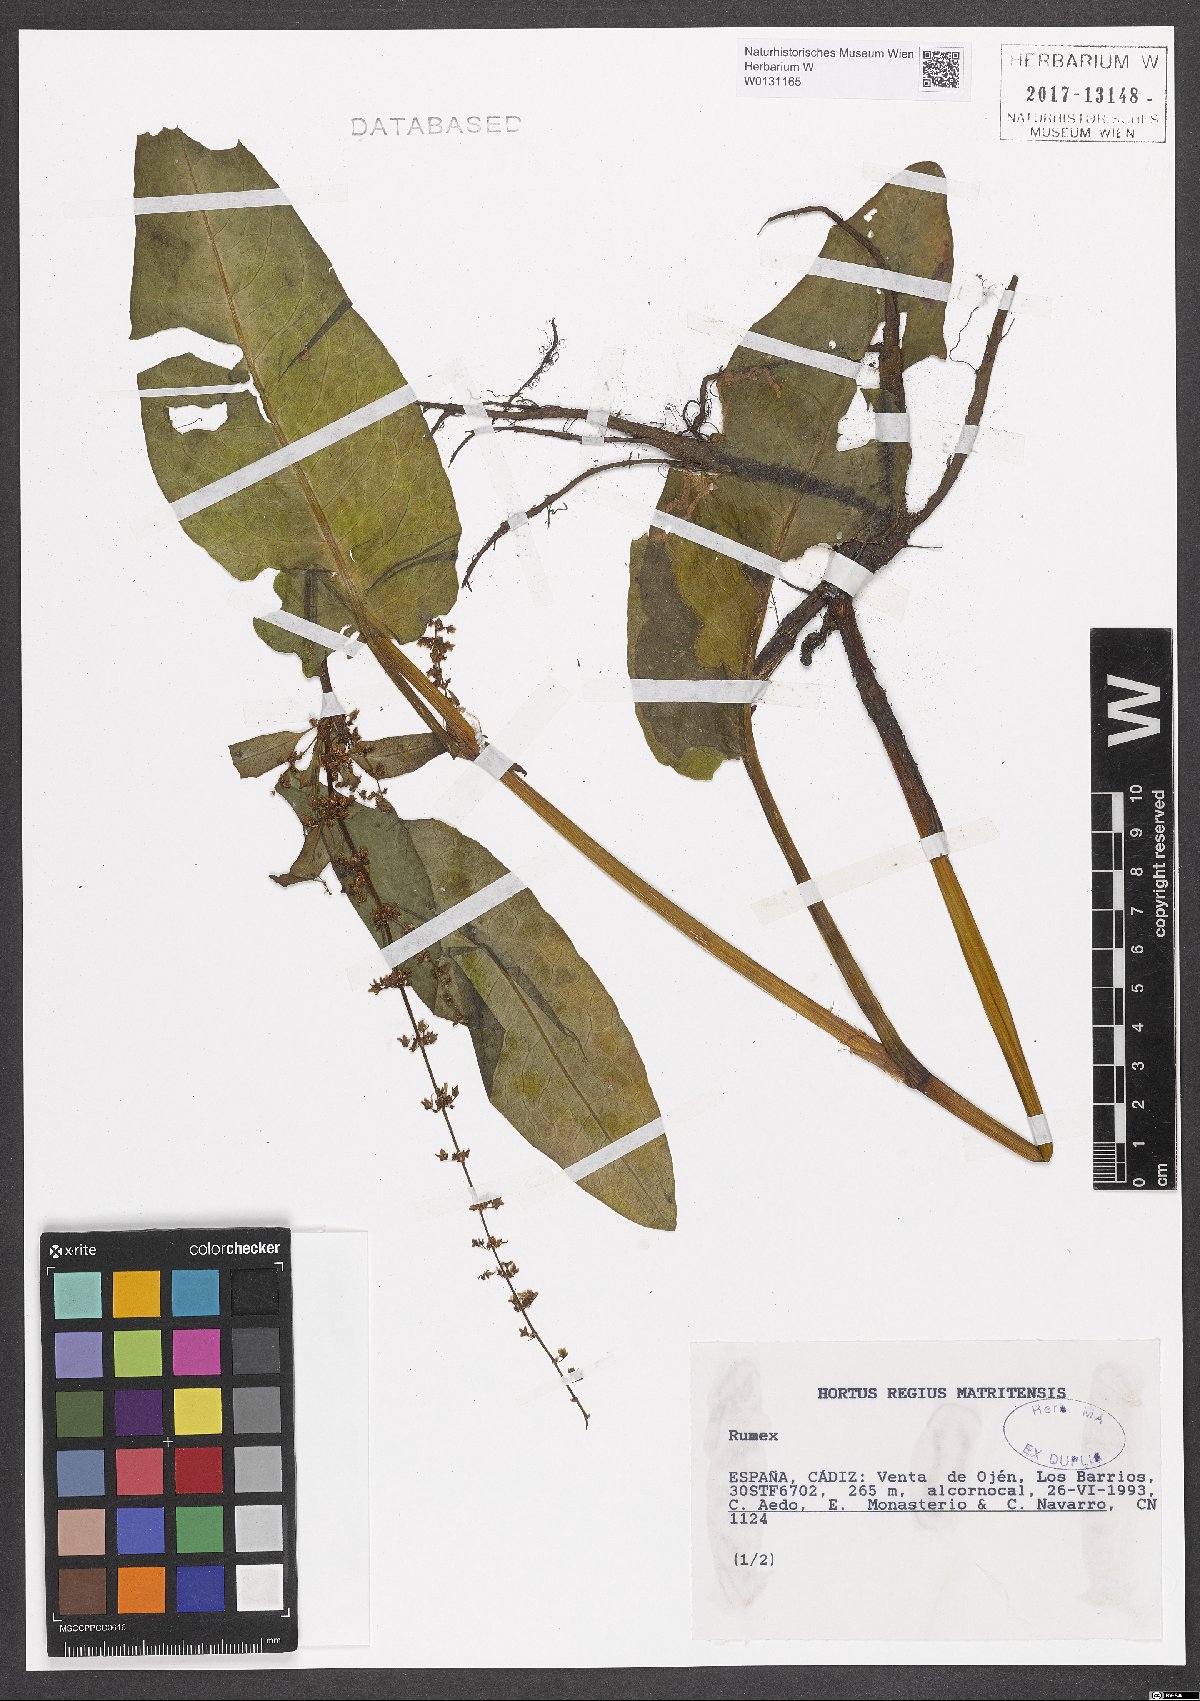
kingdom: Plantae
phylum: Tracheophyta
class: Magnoliopsida
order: Caryophyllales
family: Polygonaceae
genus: Rumex
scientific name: Rumex
